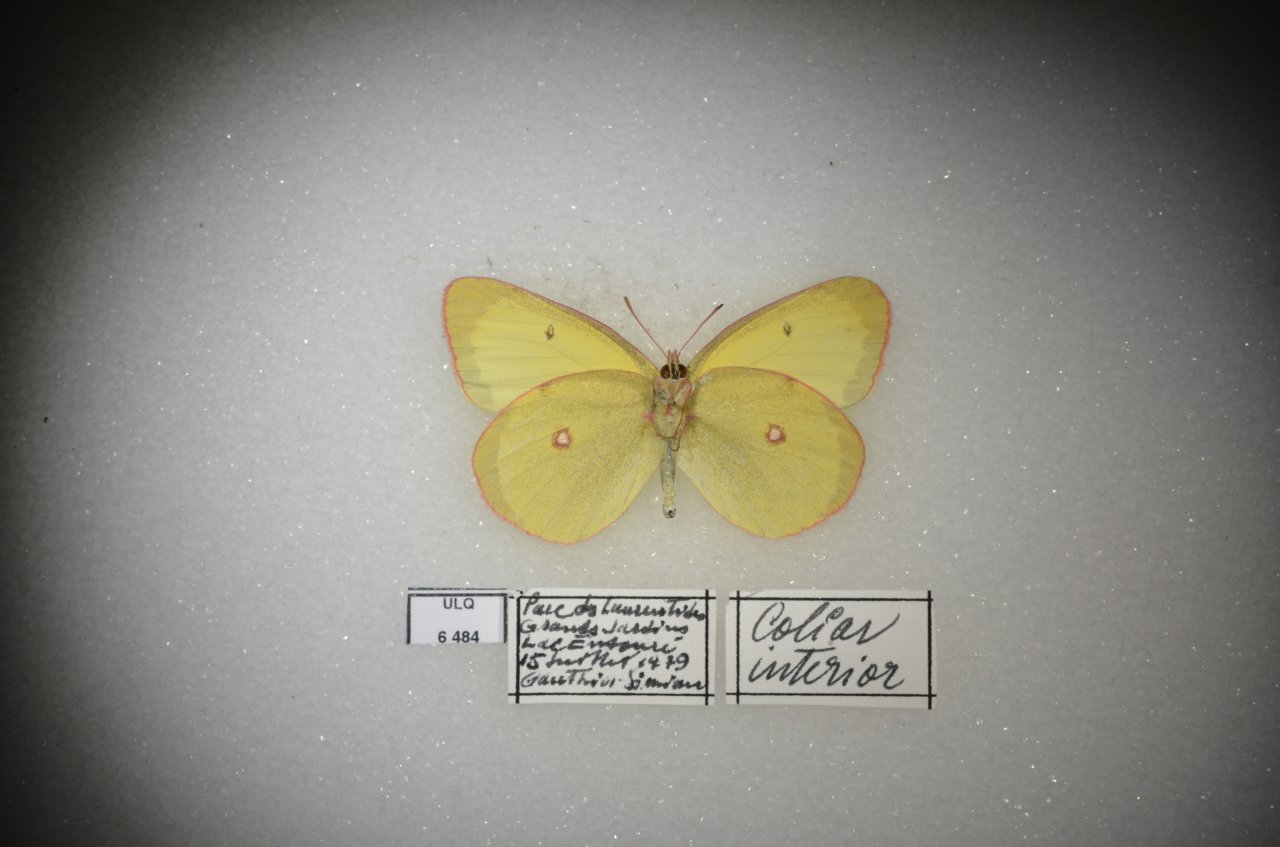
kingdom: Animalia
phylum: Arthropoda
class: Insecta
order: Lepidoptera
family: Pieridae
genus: Colias
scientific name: Colias interior
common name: Pink-edged Sulphur
